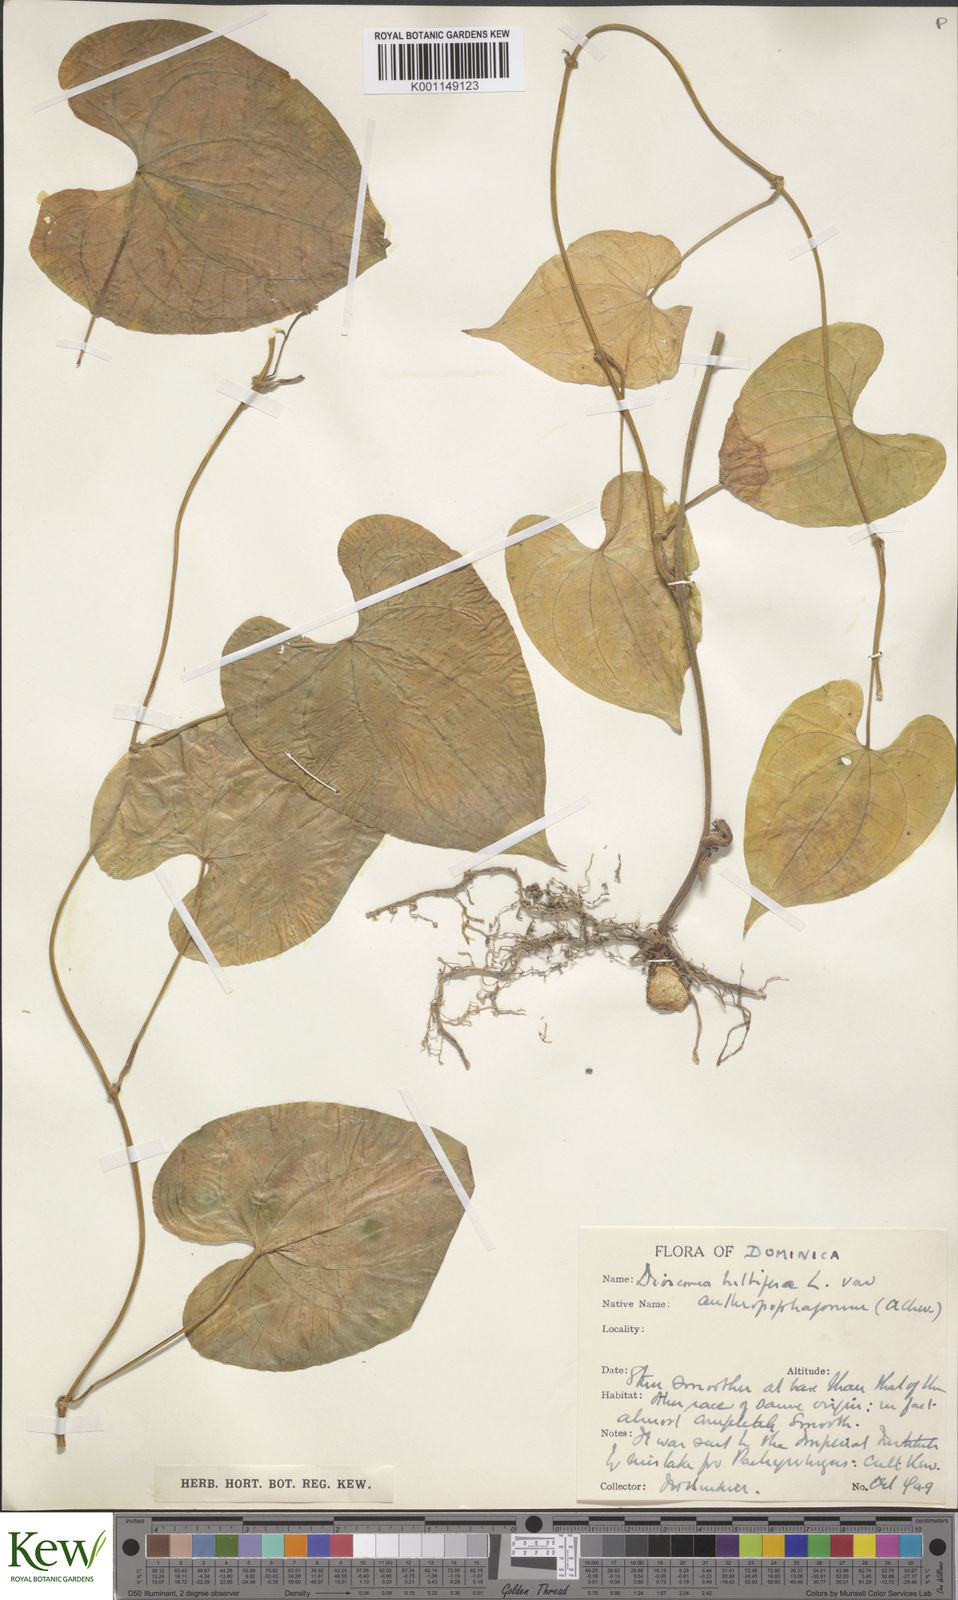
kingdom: Plantae
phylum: Tracheophyta
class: Liliopsida
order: Dioscoreales
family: Dioscoreaceae
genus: Dioscorea
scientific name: Dioscorea bulbifera
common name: Air yam
